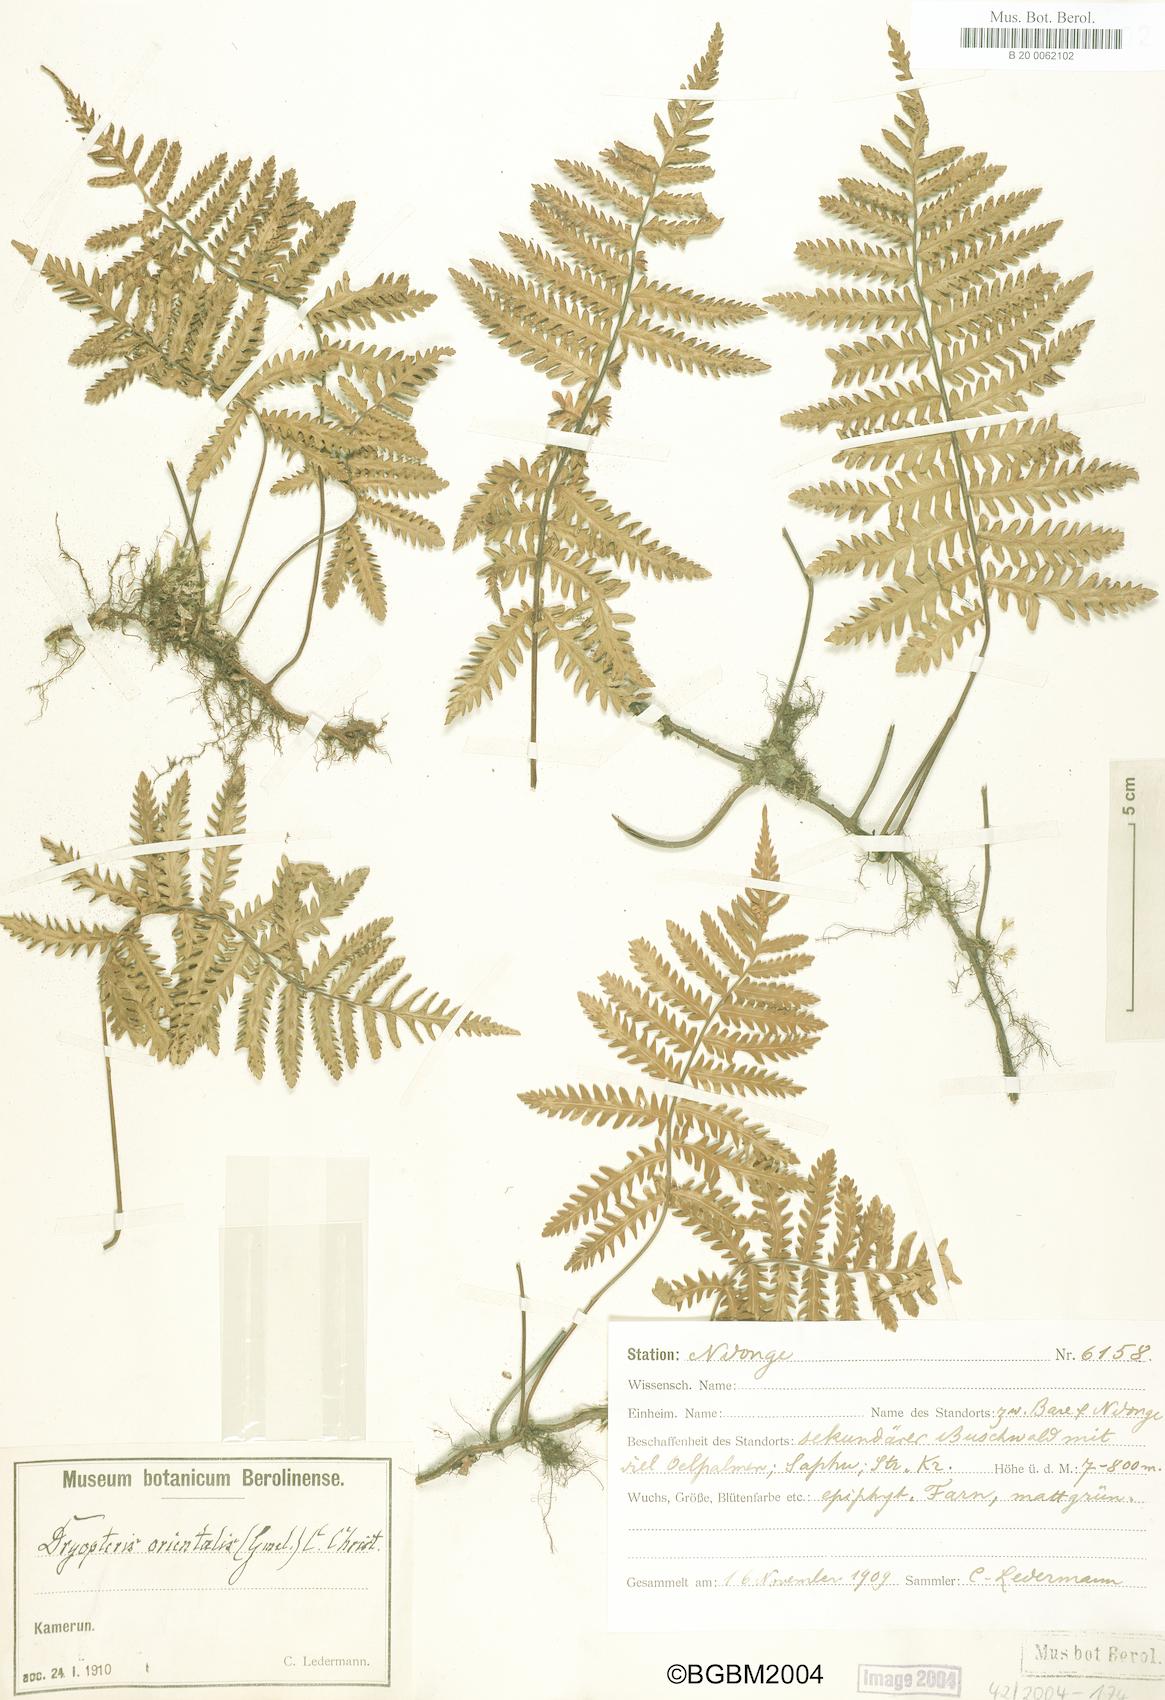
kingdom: Plantae
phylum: Tracheophyta
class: Polypodiopsida
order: Polypodiales
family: Tectariaceae
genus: Arthropteris
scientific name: Arthropteris orientalis
